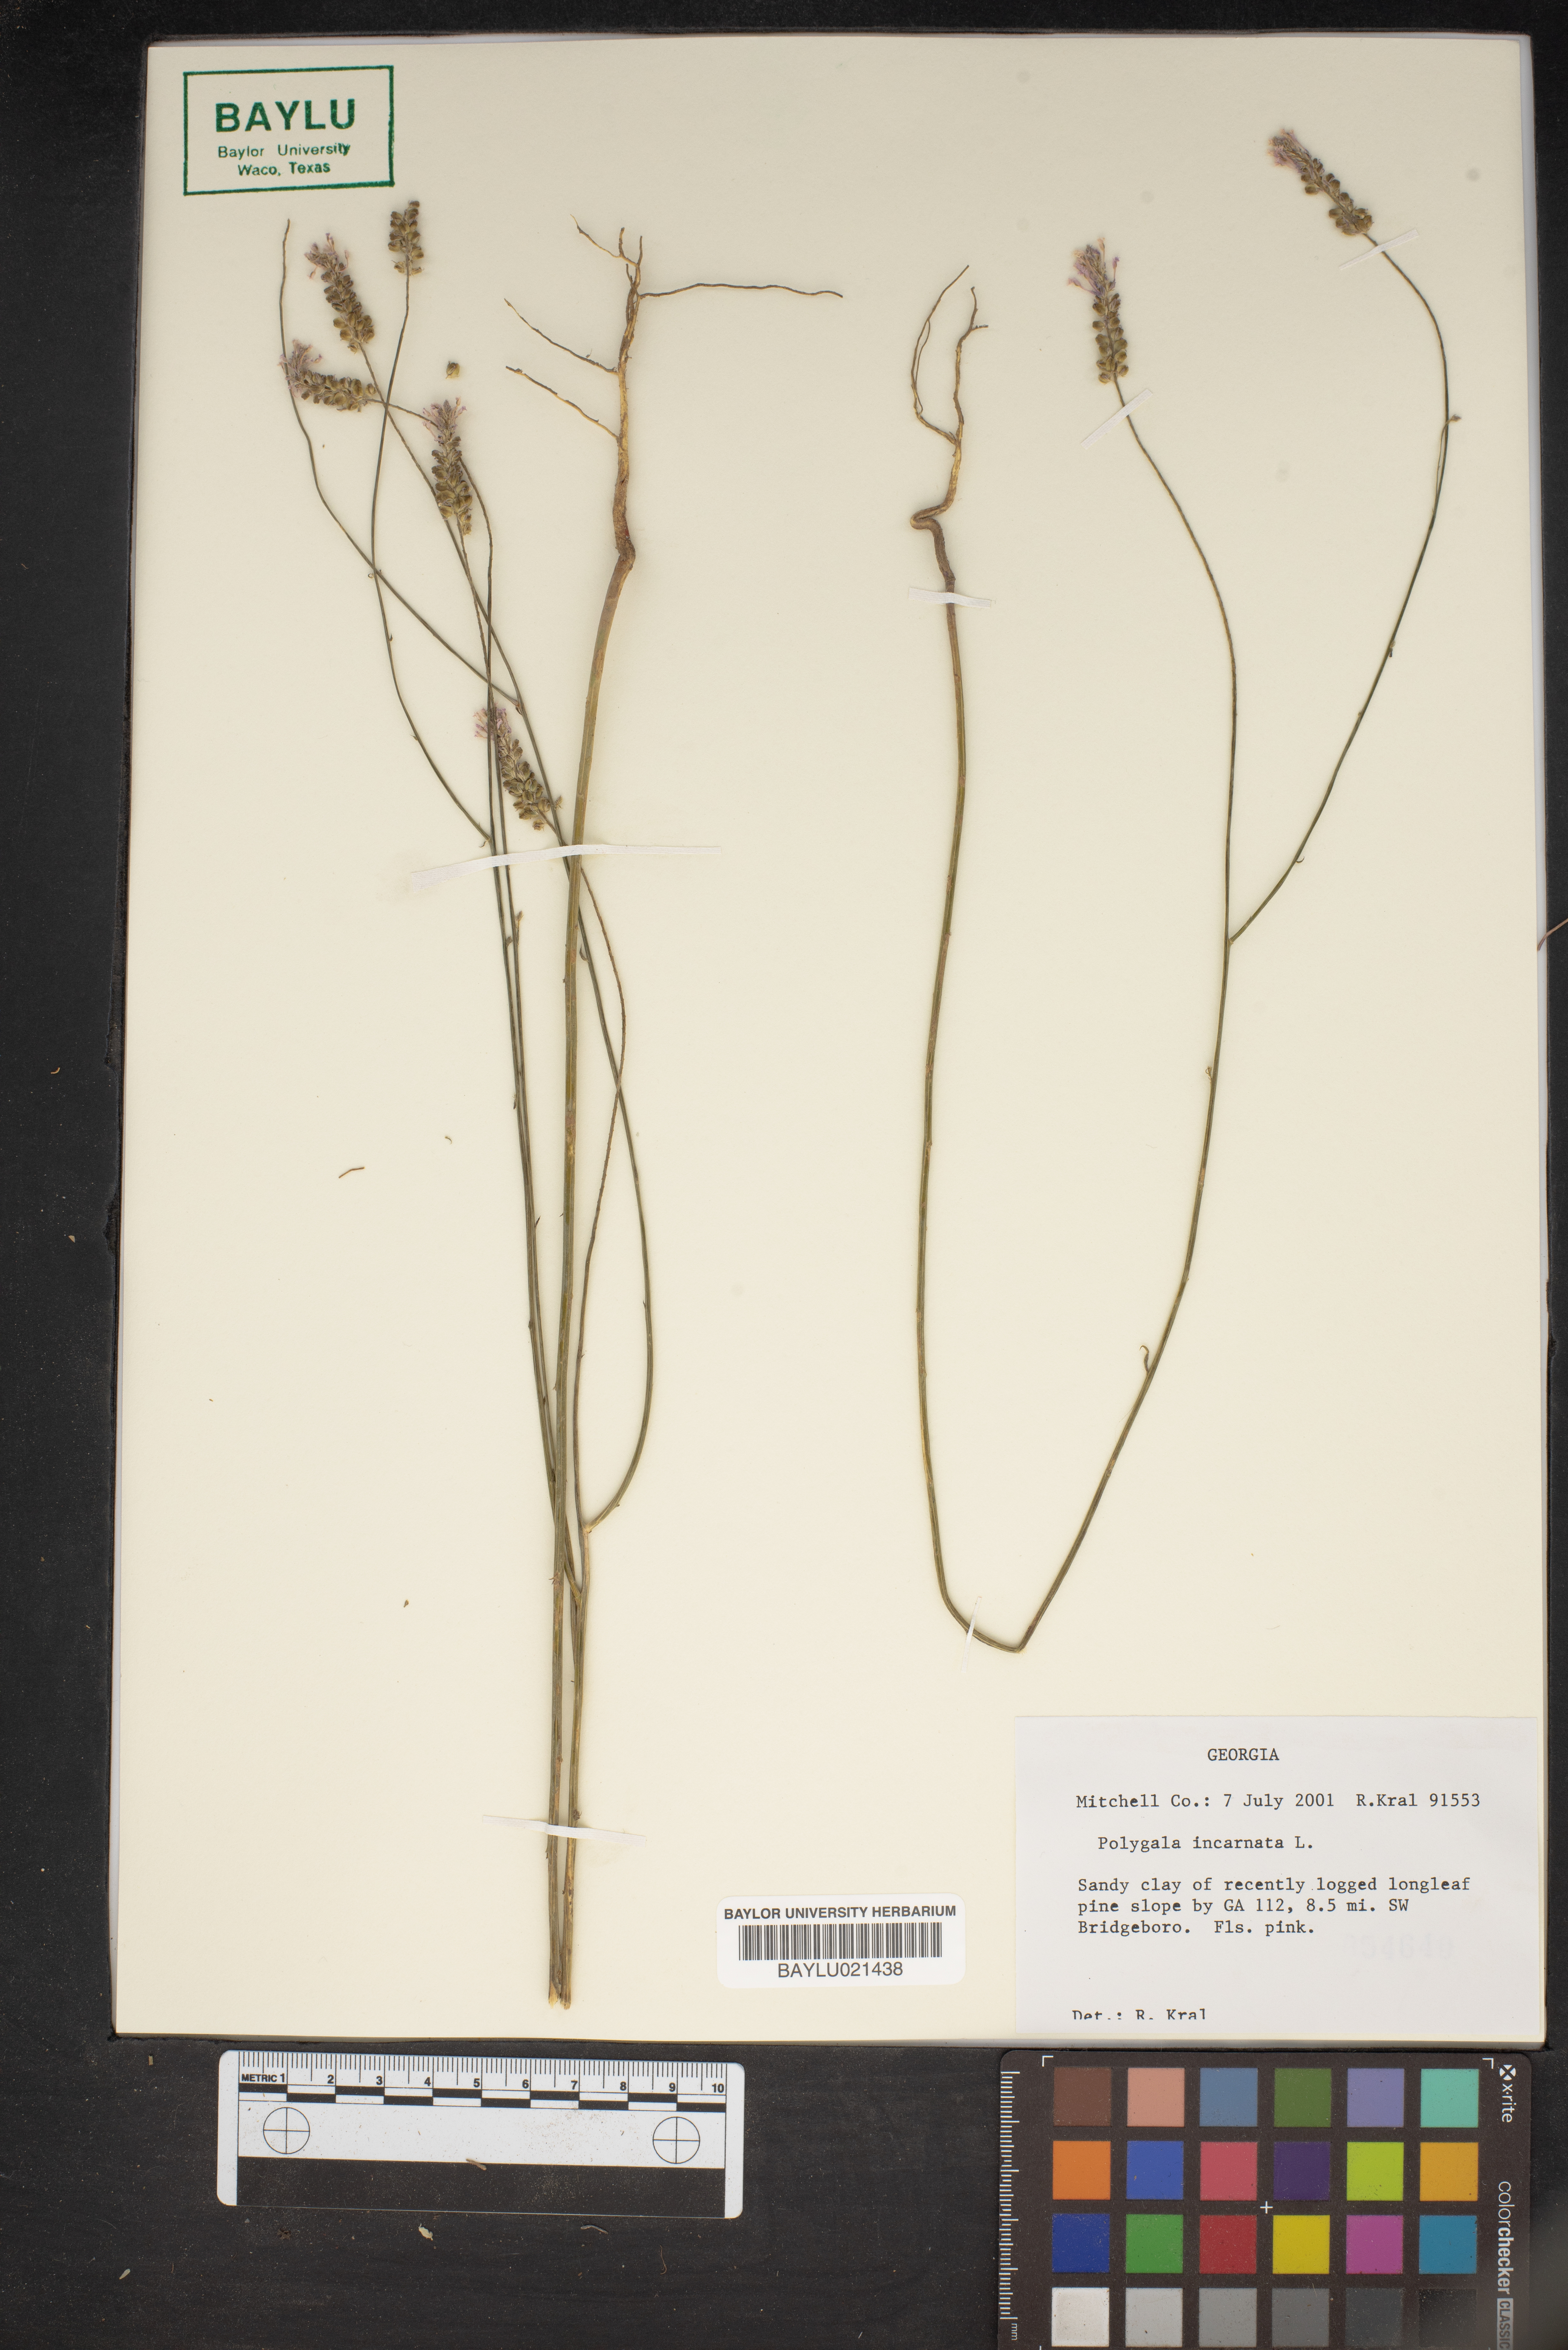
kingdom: Plantae
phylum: Tracheophyta
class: Magnoliopsida
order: Fabales
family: Polygalaceae
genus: Polygala
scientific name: Polygala incarnata
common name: Pink milkwort
